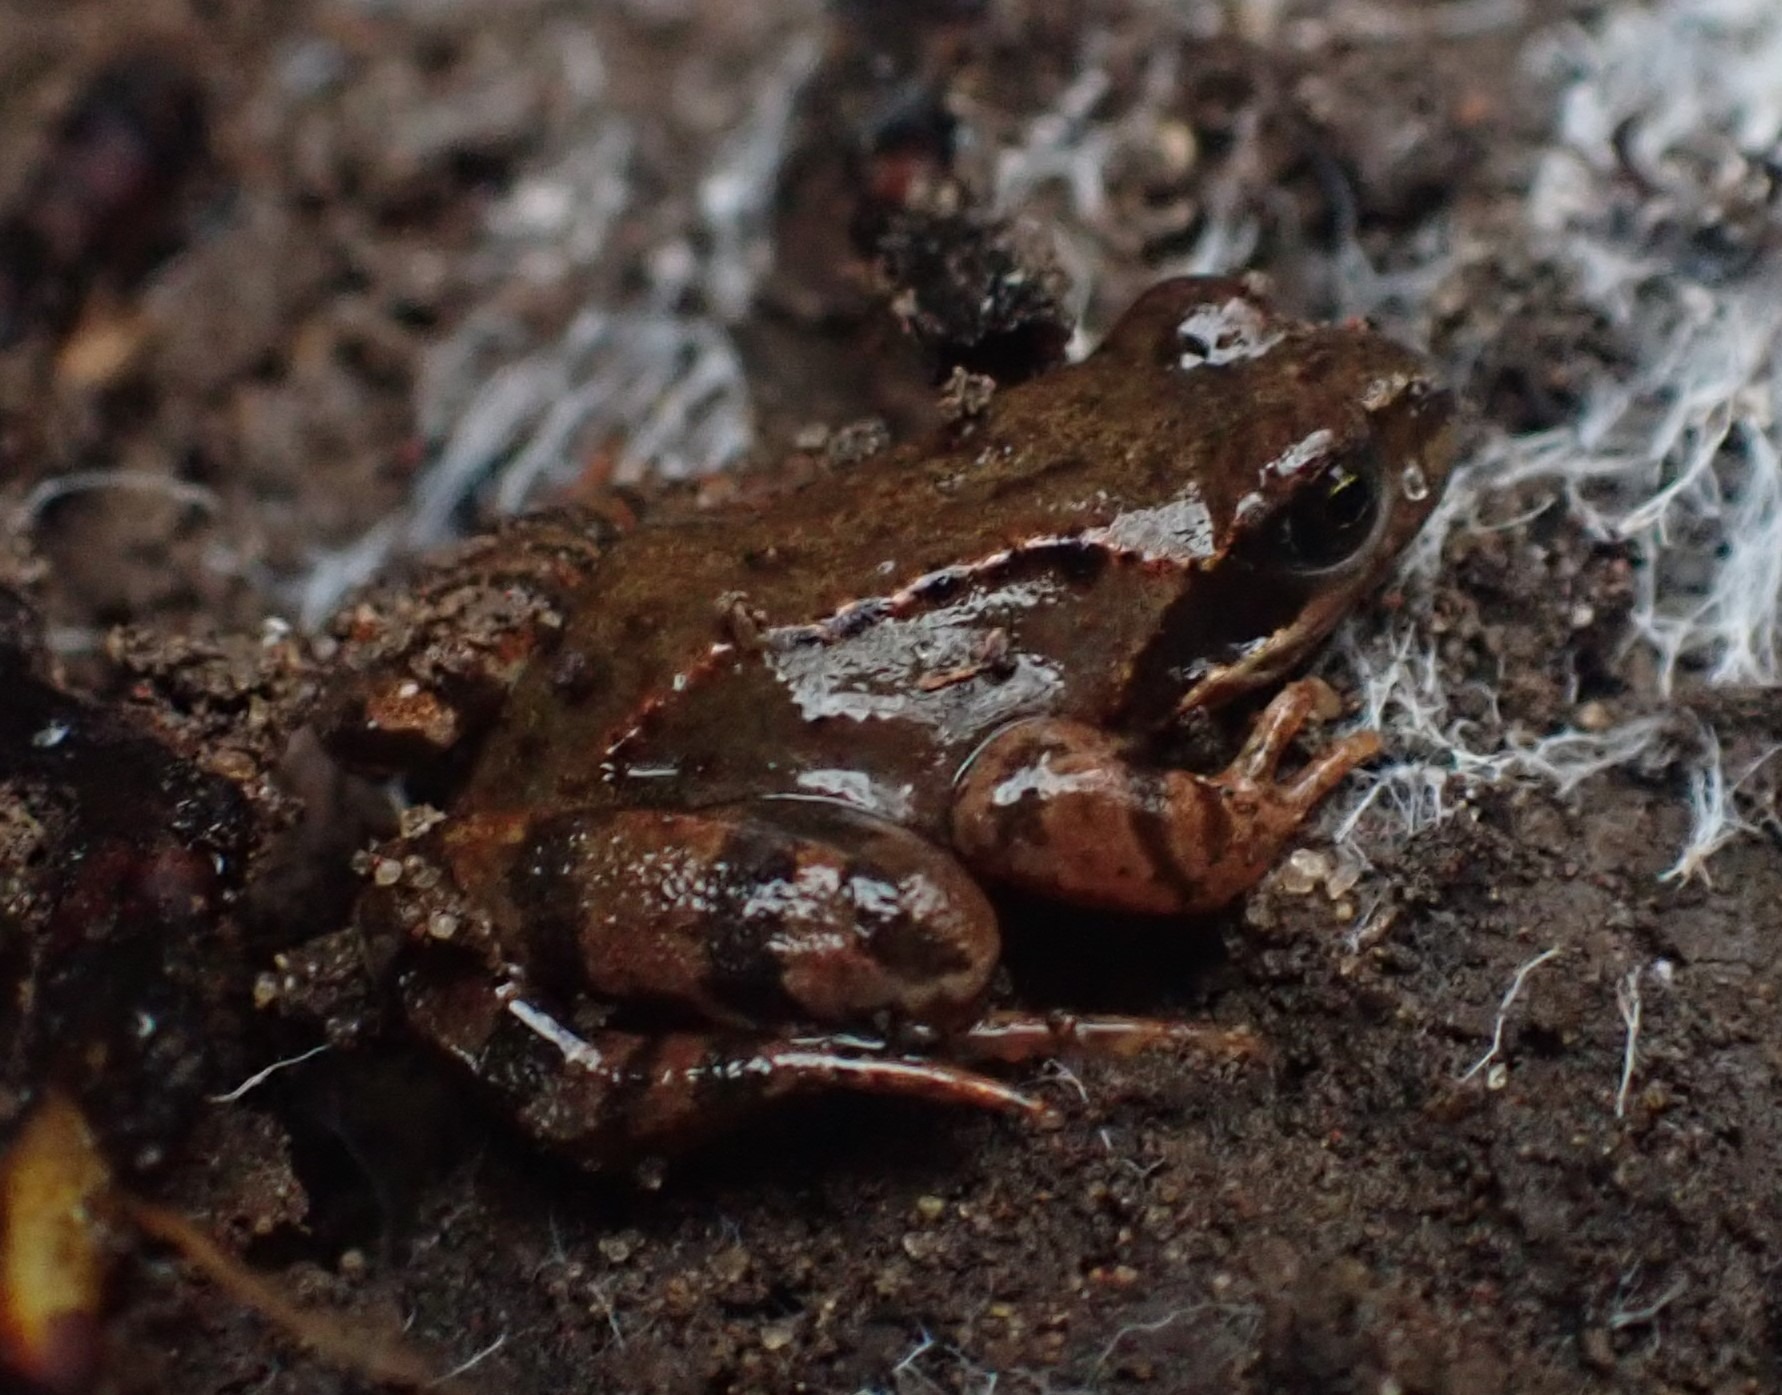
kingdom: Animalia
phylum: Chordata
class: Amphibia
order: Anura
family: Ranidae
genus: Rana
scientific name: Rana temporaria
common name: Butsnudet frø
